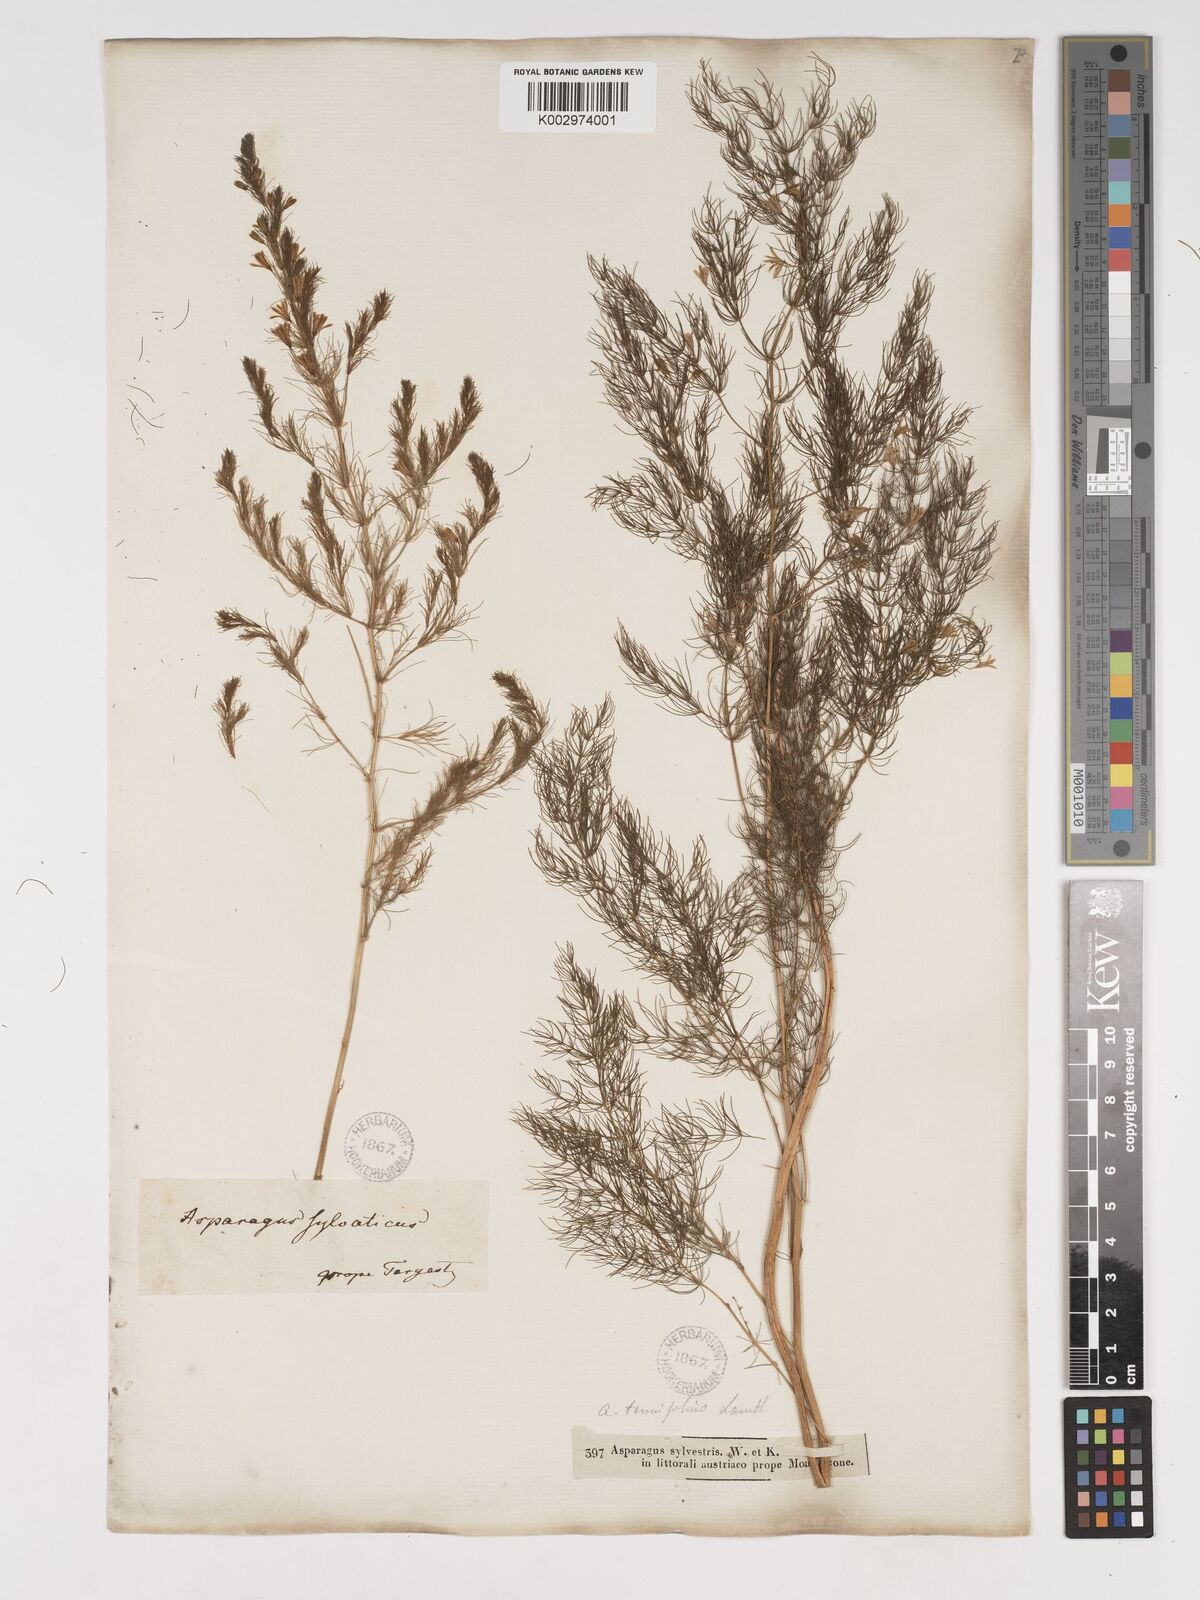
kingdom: Plantae
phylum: Tracheophyta
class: Liliopsida
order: Asparagales
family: Asparagaceae
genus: Asparagus
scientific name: Asparagus officinalis
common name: Garden asparagus
